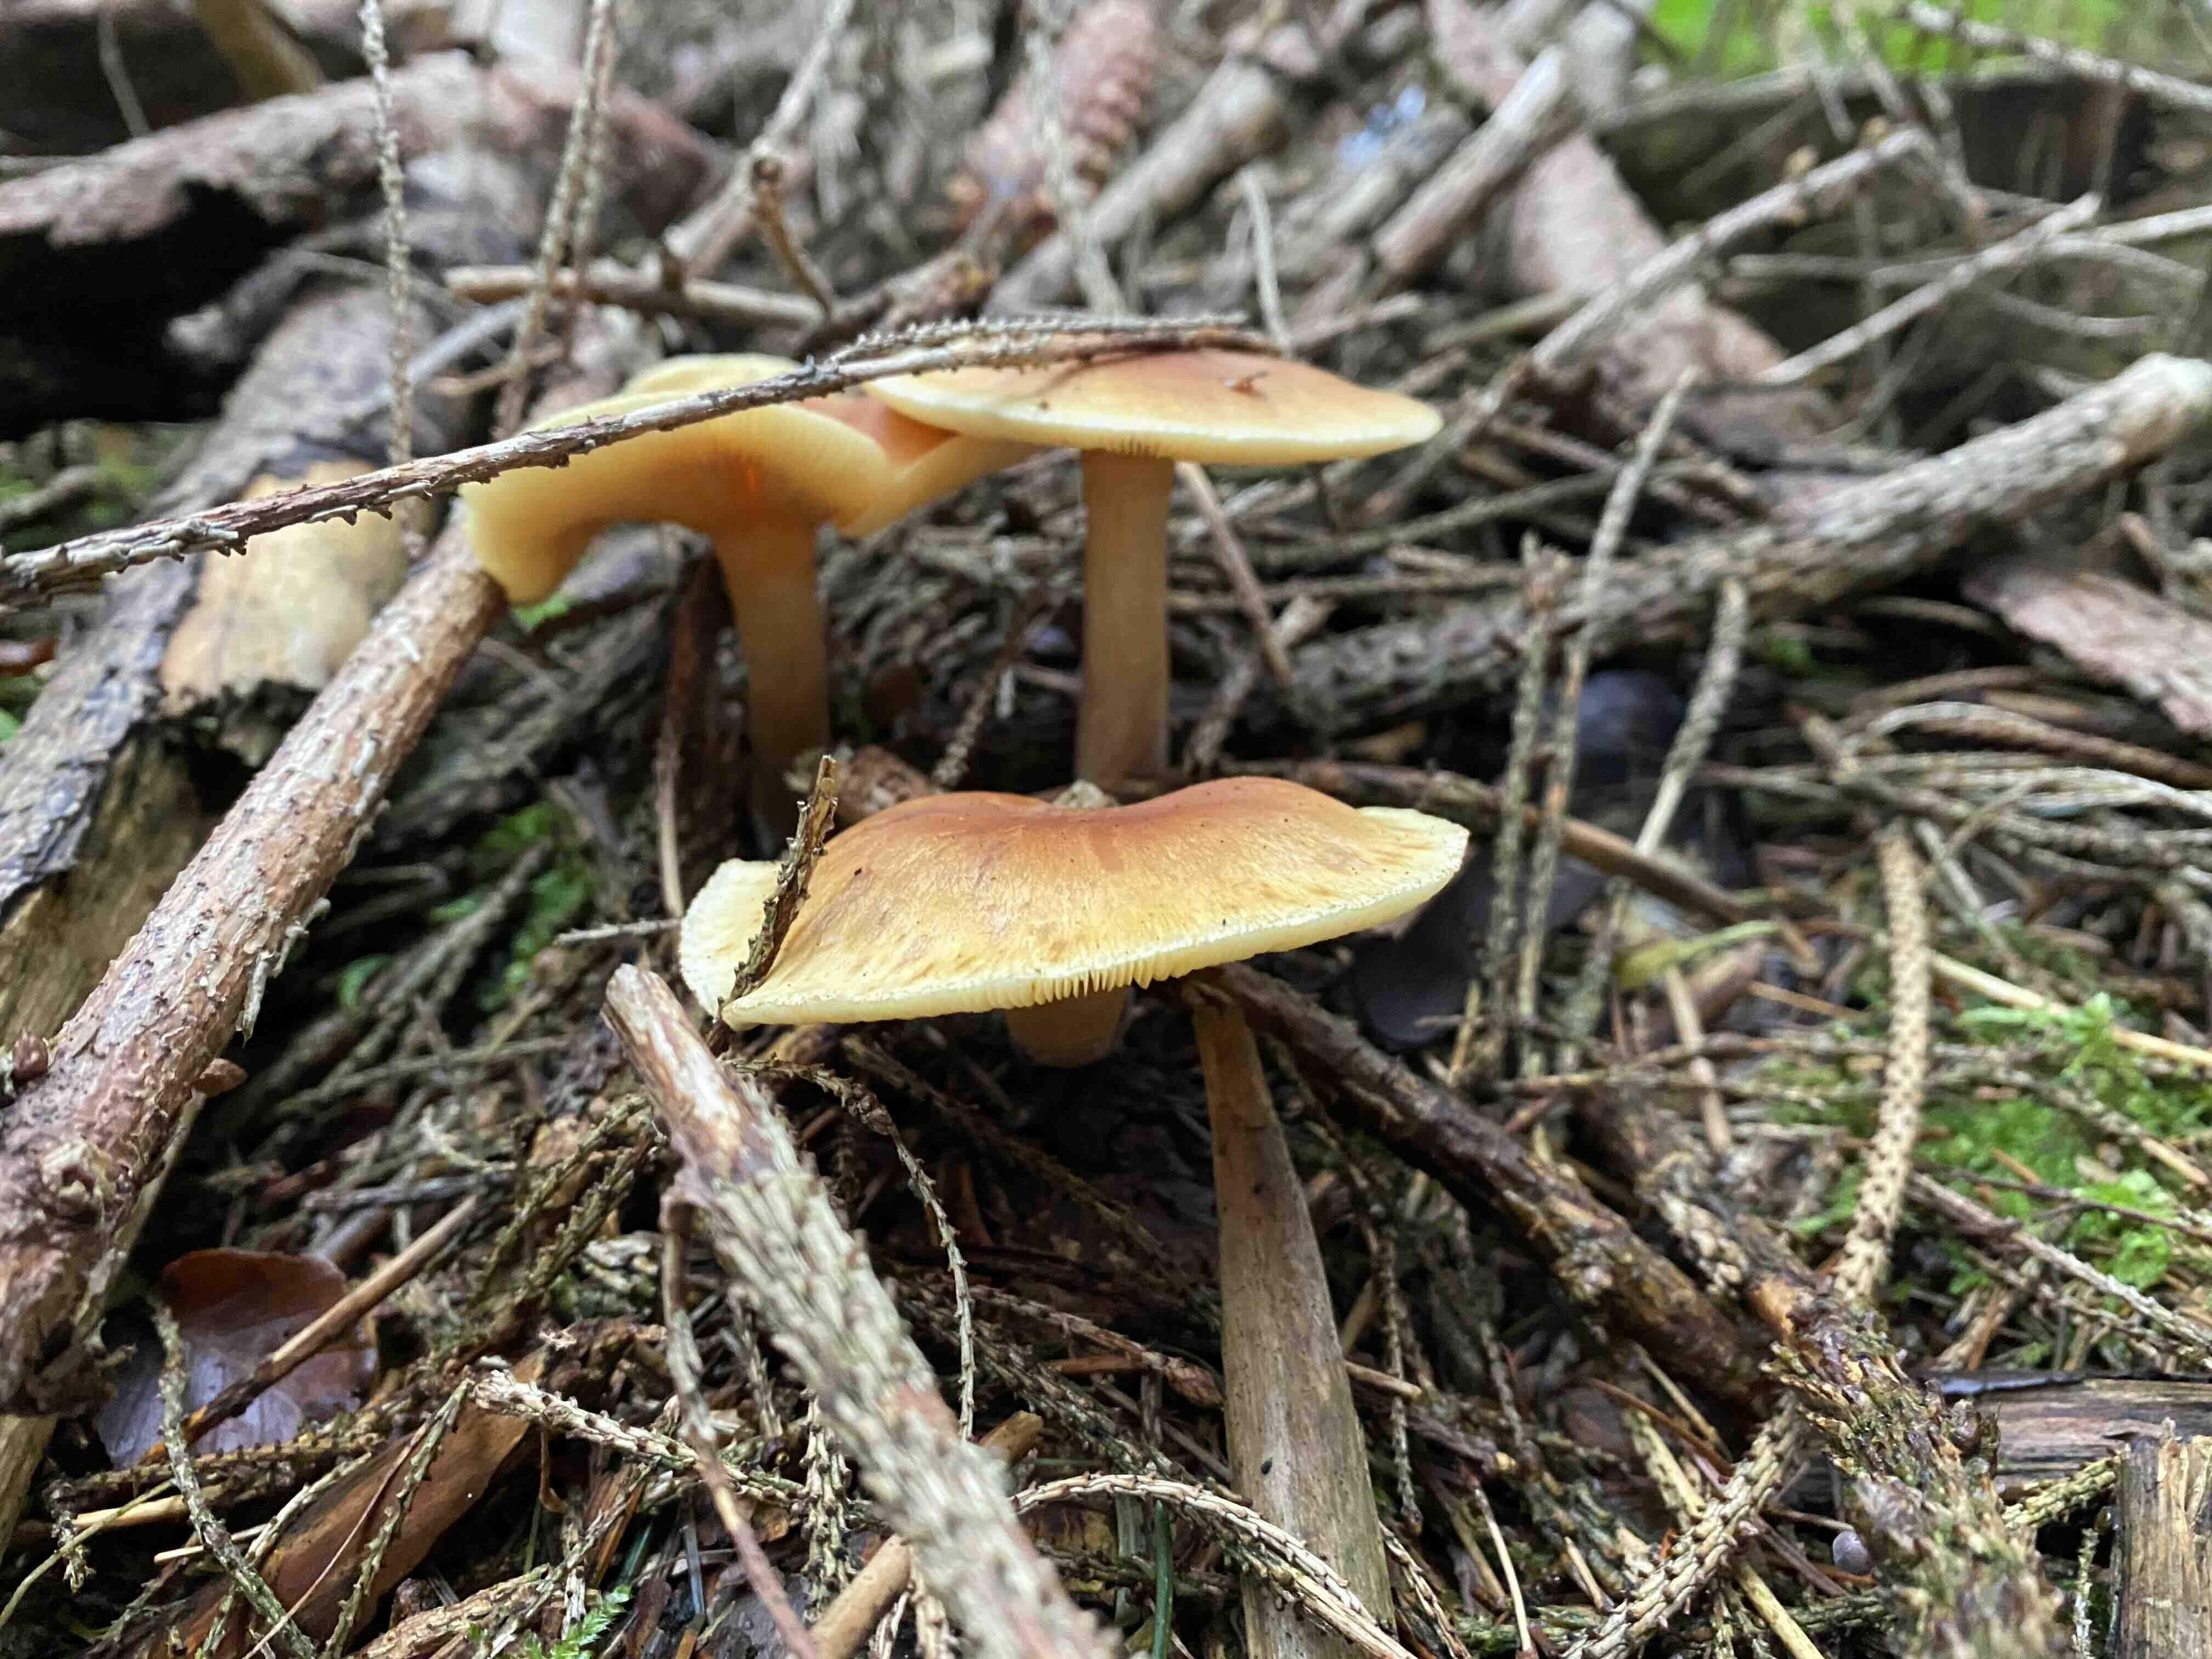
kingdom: Fungi
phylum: Basidiomycota
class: Agaricomycetes
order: Agaricales
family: Hymenogastraceae
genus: Gymnopilus
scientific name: Gymnopilus penetrans
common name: plettet flammehat
